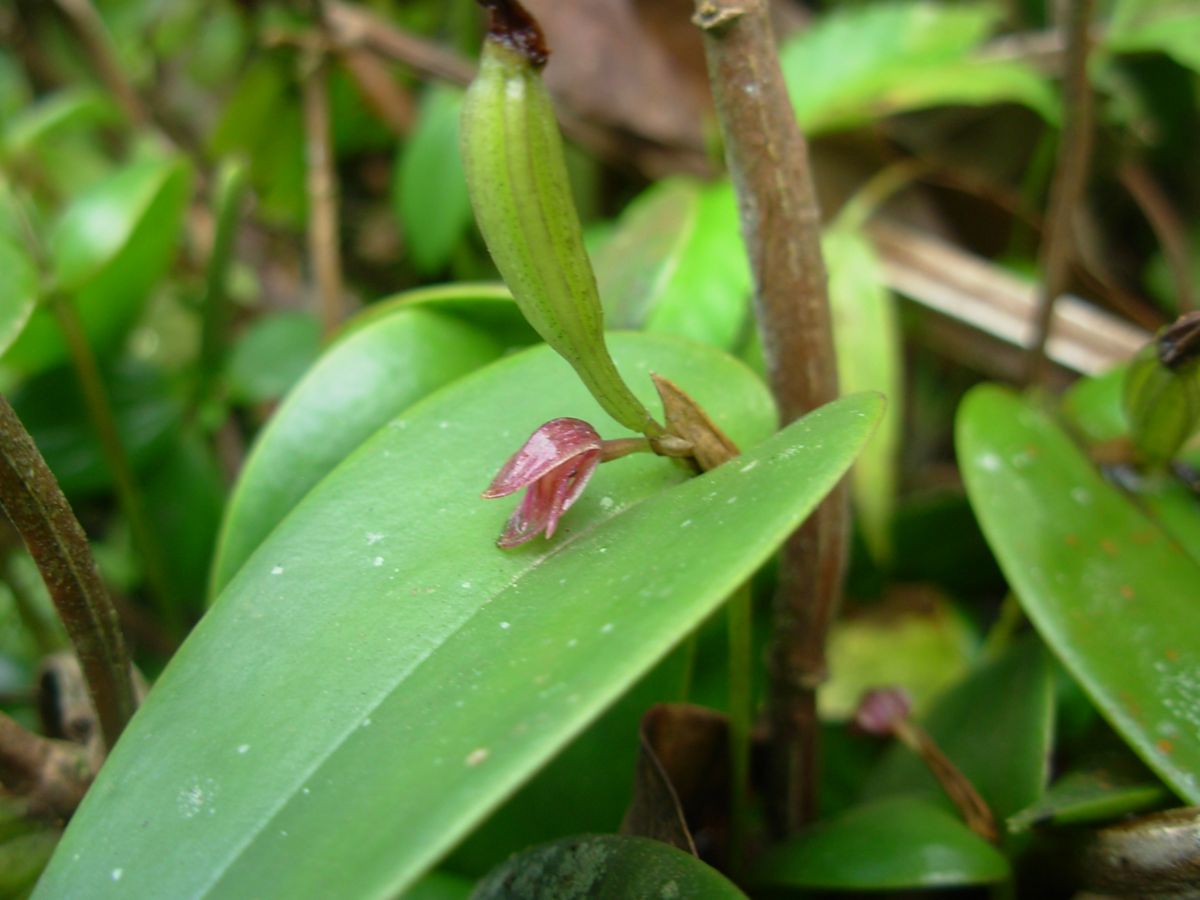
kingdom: Plantae
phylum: Tracheophyta
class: Liliopsida
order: Asparagales
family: Orchidaceae
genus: Pleurothallis
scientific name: Pleurothallis matudana
